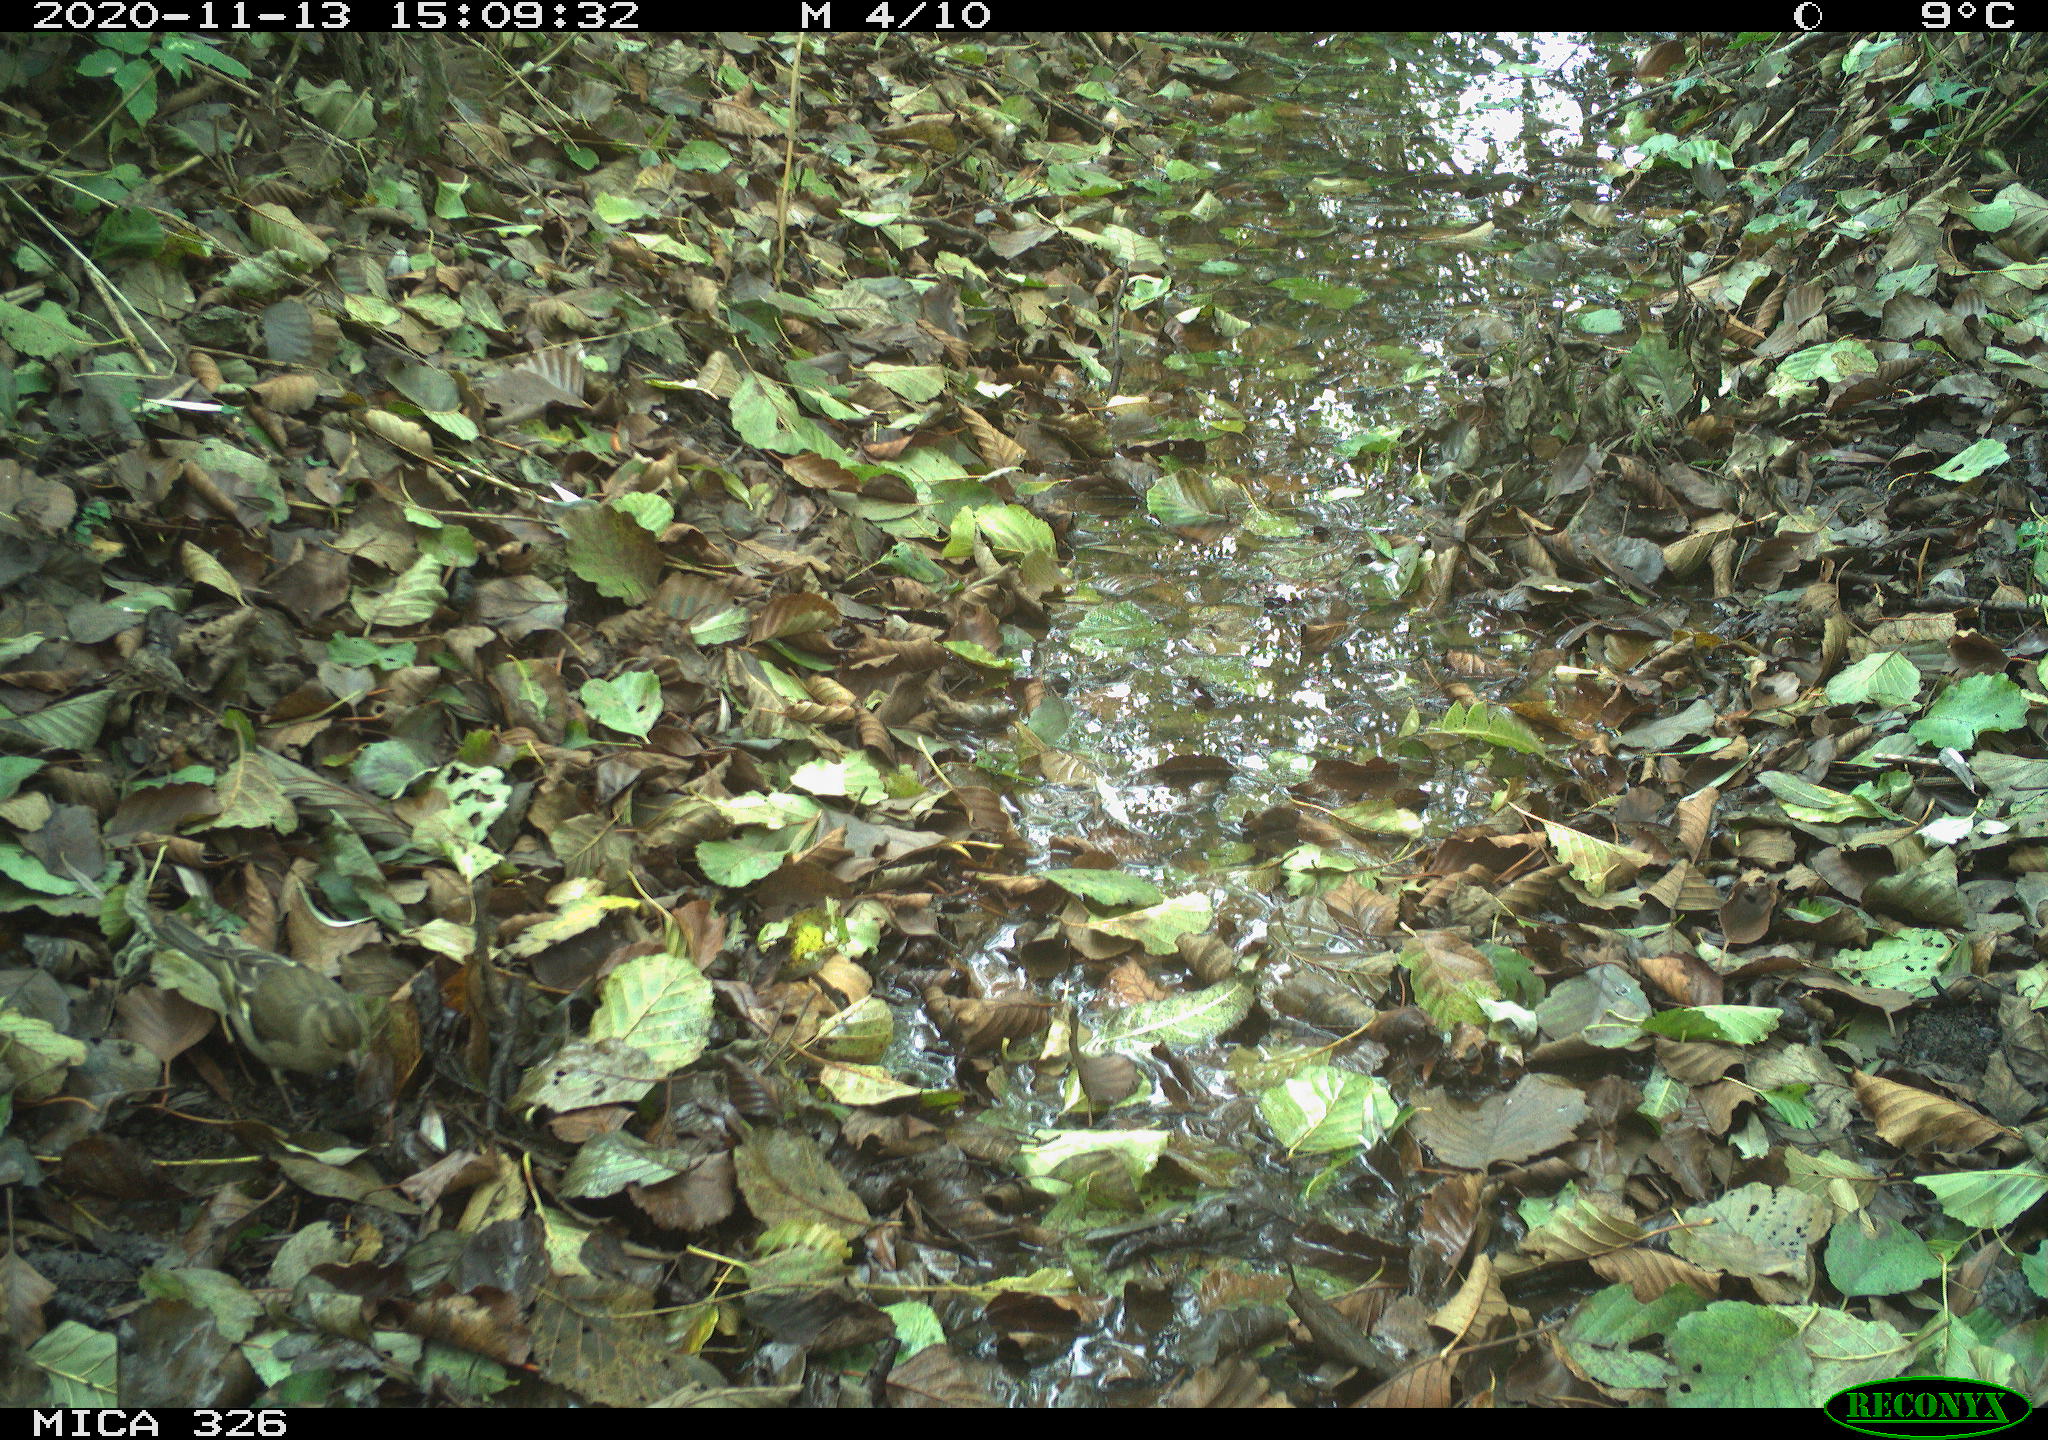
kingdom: Animalia
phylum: Chordata
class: Aves
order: Passeriformes
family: Fringillidae
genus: Fringilla
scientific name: Fringilla coelebs
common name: Common chaffinch
